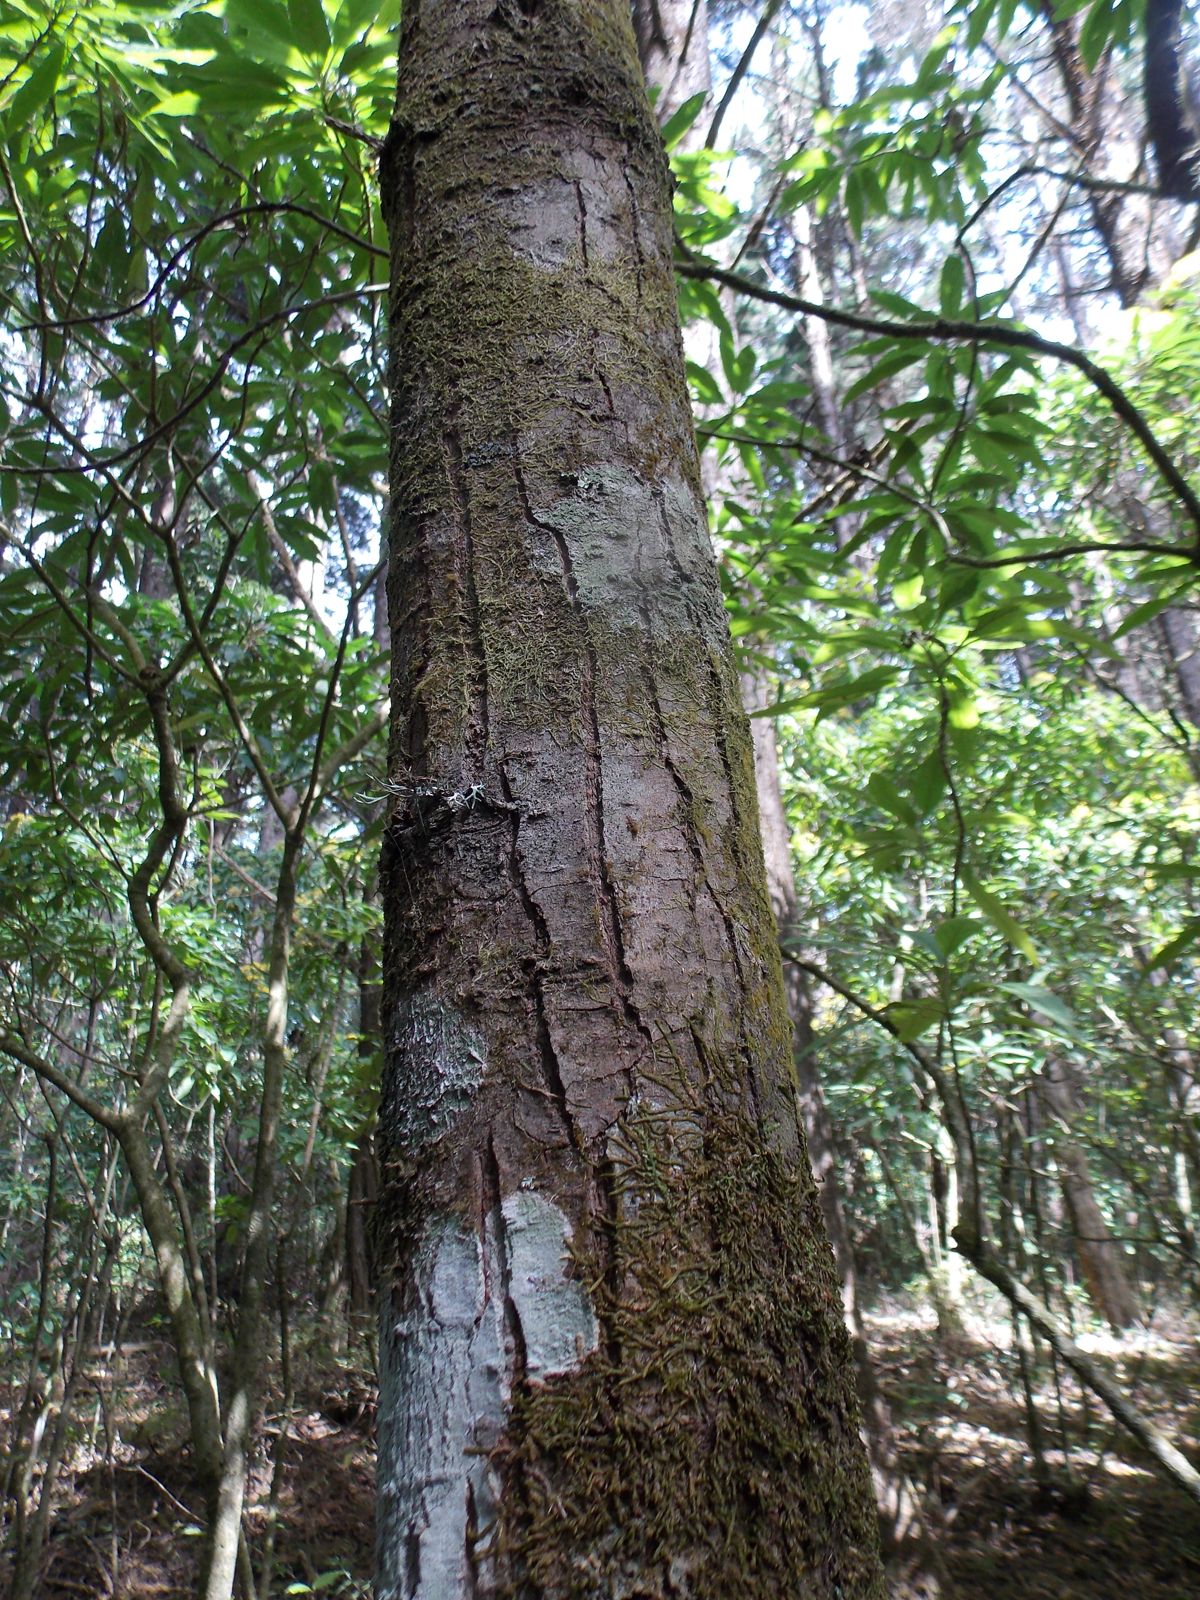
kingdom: Plantae
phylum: Tracheophyta
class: Pinopsida
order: Pinales
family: Pinaceae
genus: Abies
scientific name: Abies guatemalensis
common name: Guatemalan fir
